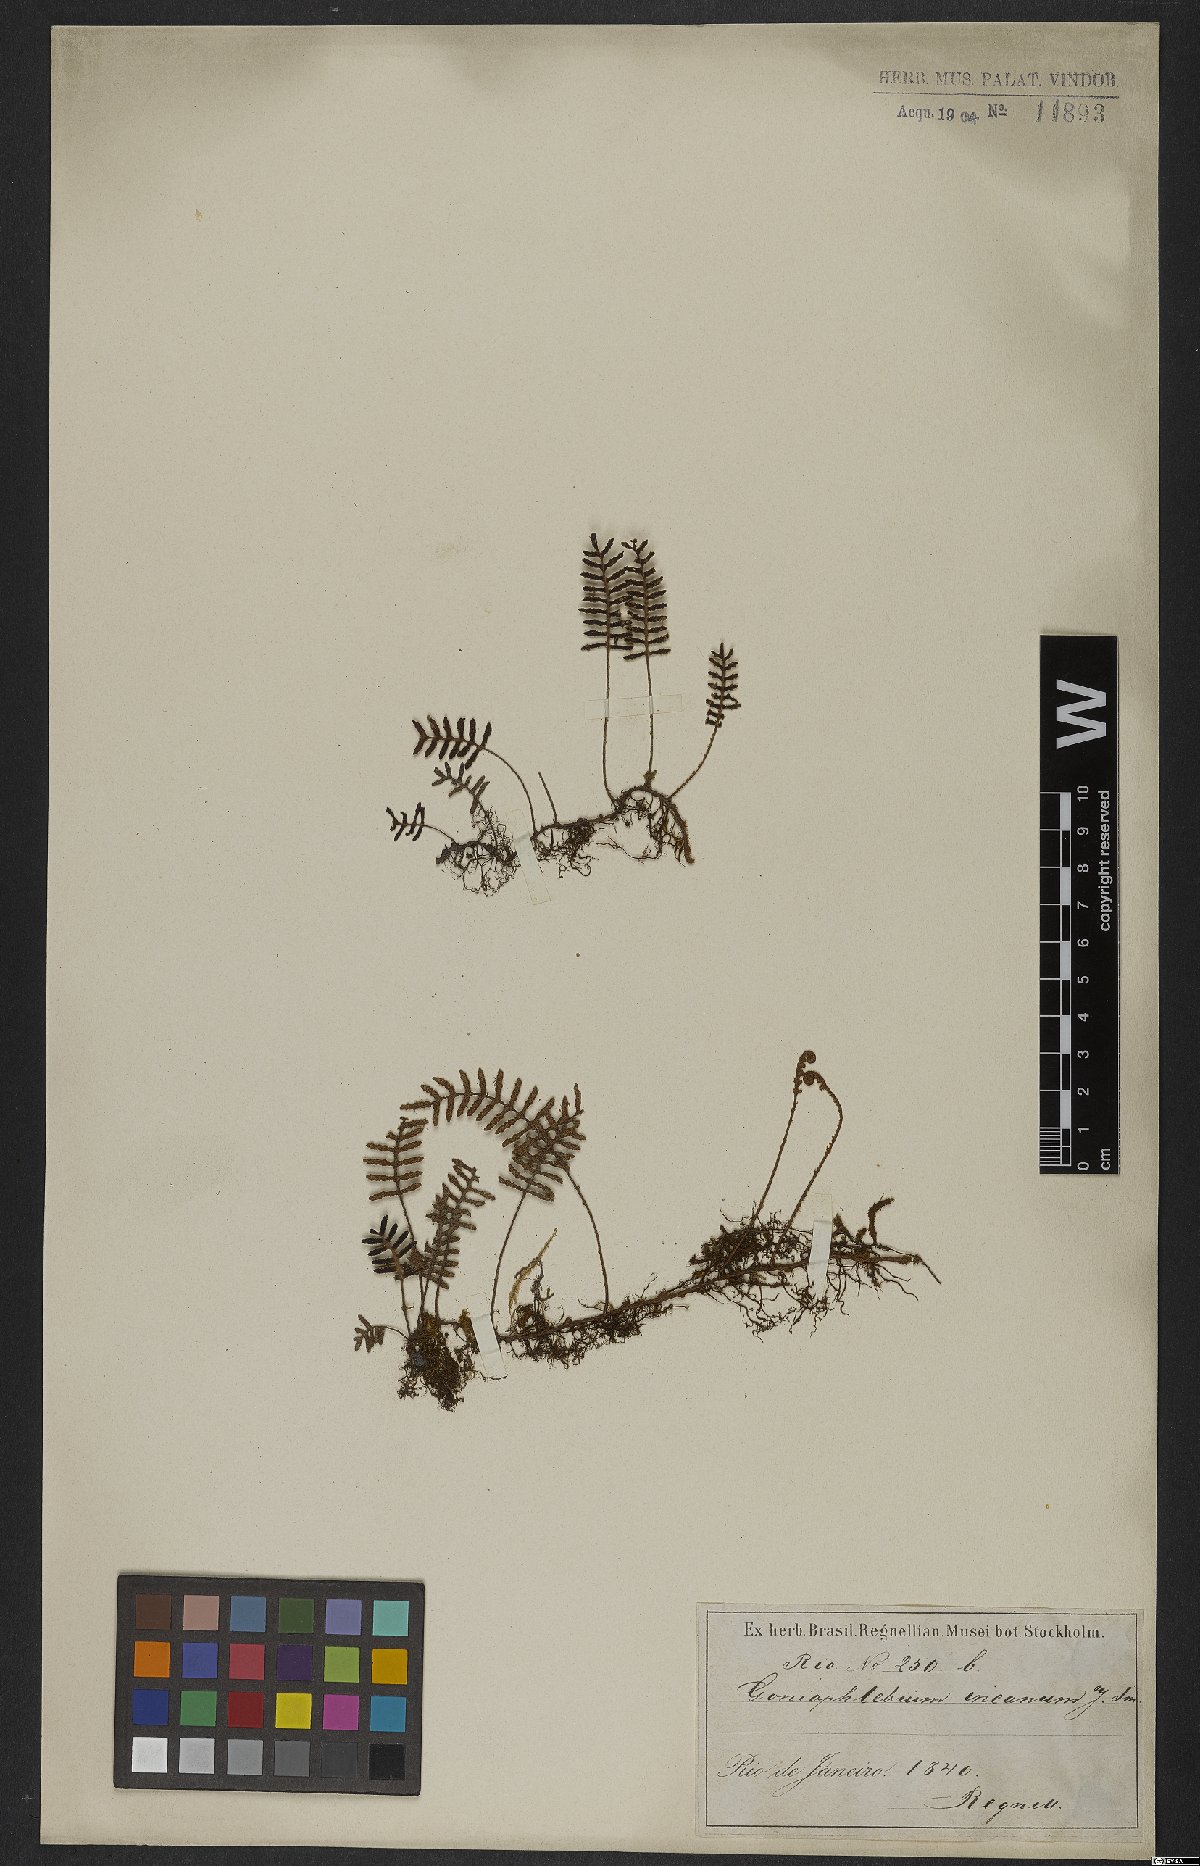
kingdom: Plantae
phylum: Tracheophyta
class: Polypodiopsida
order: Polypodiales
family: Polypodiaceae
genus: Pleopeltis
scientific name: Pleopeltis polypodioides
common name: Resurrection fern
